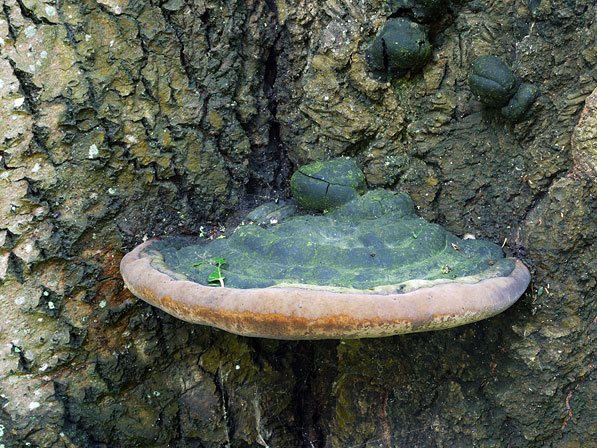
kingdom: Fungi
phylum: Basidiomycota
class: Agaricomycetes
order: Hymenochaetales
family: Hymenochaetaceae
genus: Phellinus
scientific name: Phellinus populicola
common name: poppel-ildporesvamp
